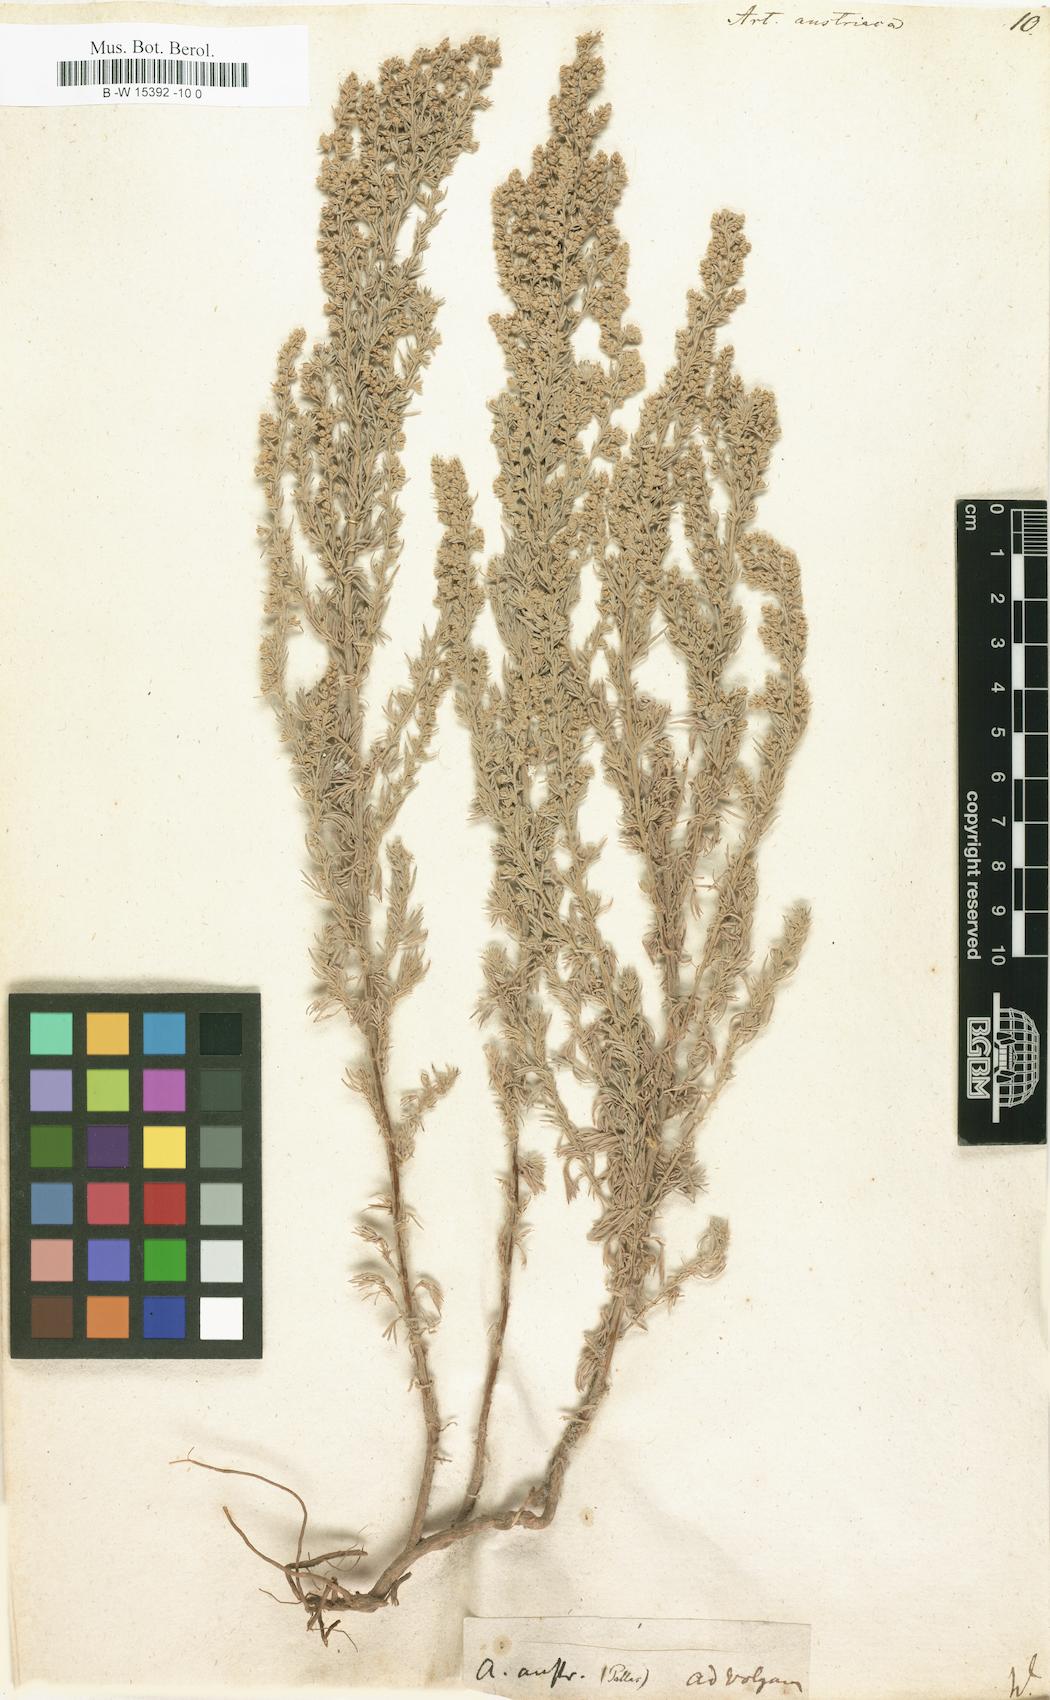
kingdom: Plantae
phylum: Tracheophyta
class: Magnoliopsida
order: Asterales
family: Asteraceae
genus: Artemisia
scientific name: Artemisia austriaca
